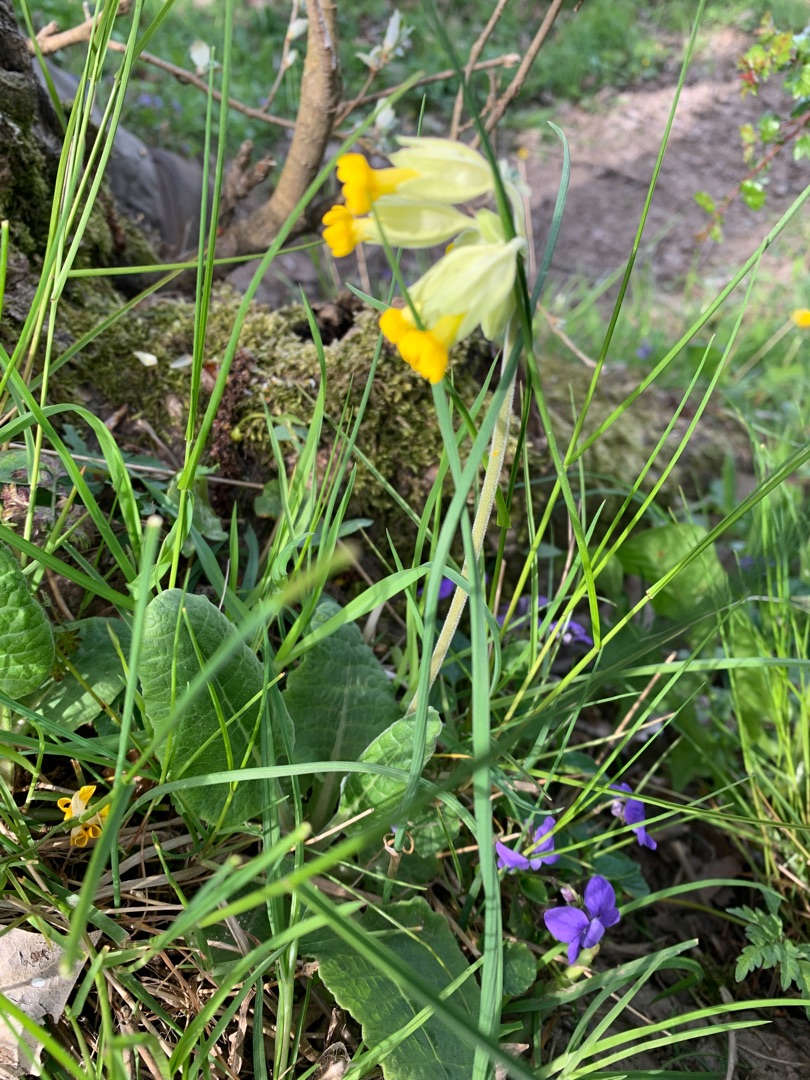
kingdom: Plantae
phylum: Tracheophyta
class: Magnoliopsida
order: Ericales
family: Primulaceae
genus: Primula
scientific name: Primula veris
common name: Hulkravet kodriver
